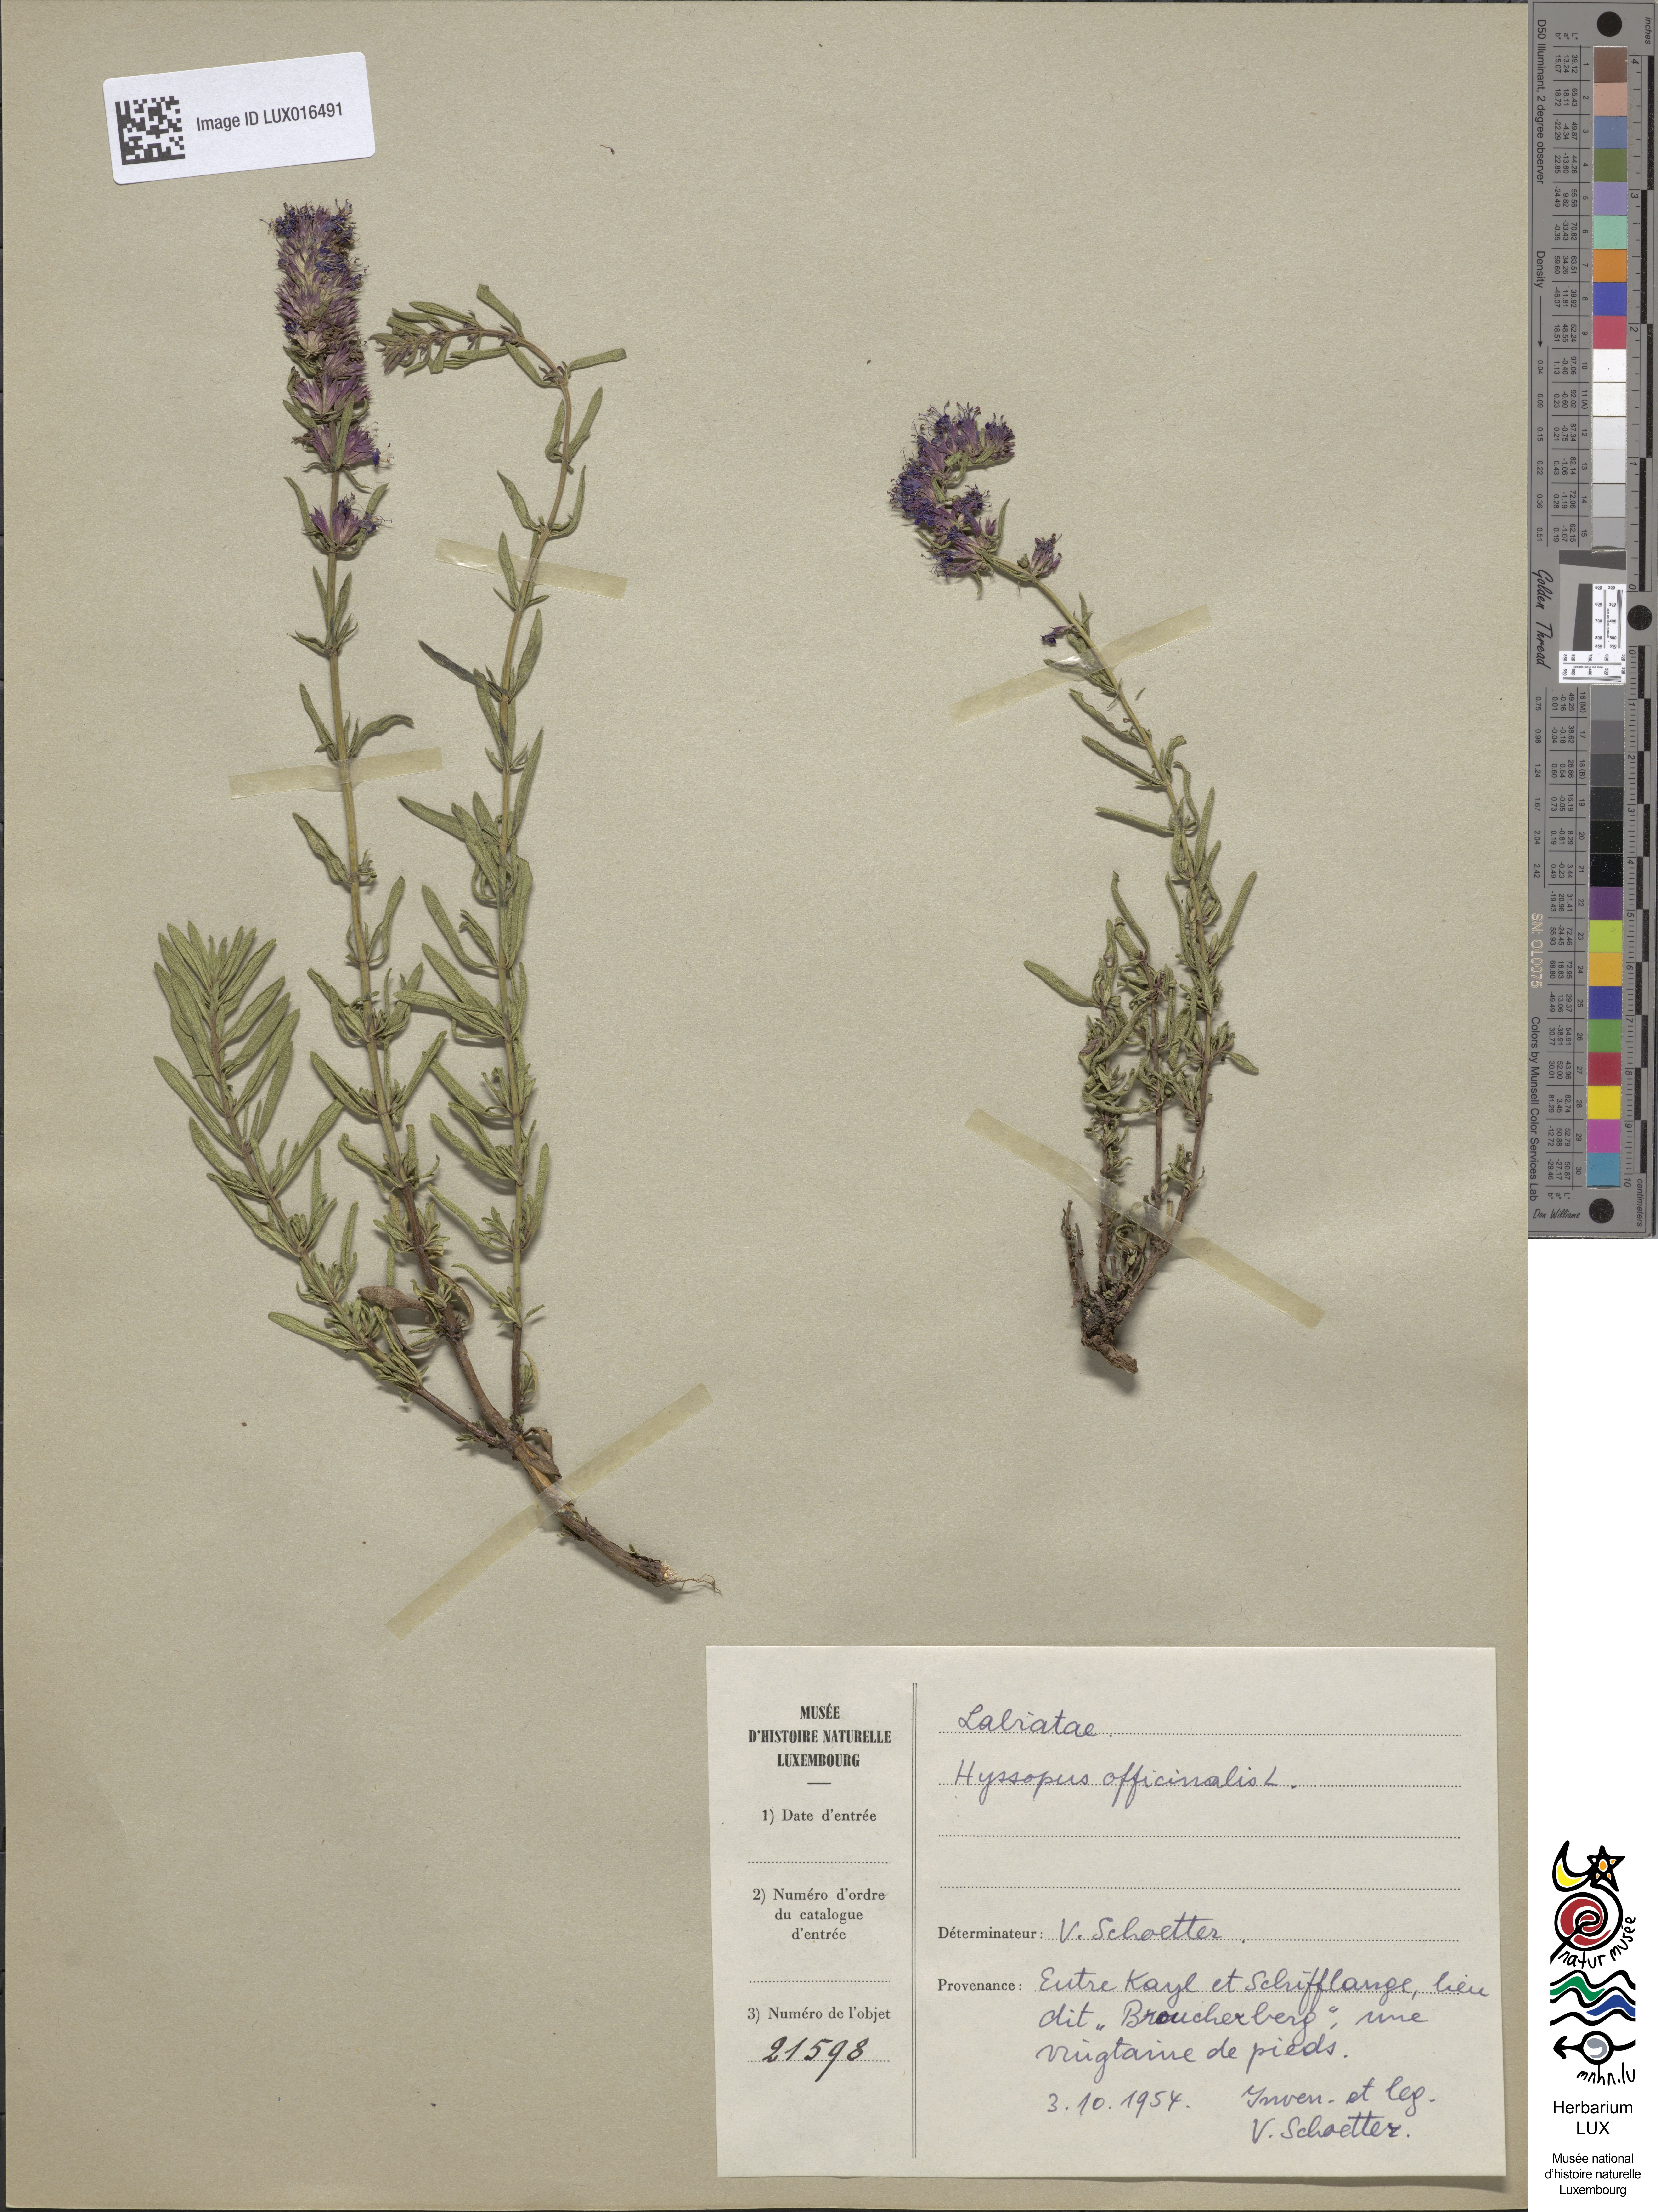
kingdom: Plantae
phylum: Tracheophyta
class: Magnoliopsida
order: Lamiales
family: Lamiaceae
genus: Hyssopus
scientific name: Hyssopus officinalis
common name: Hyssop
